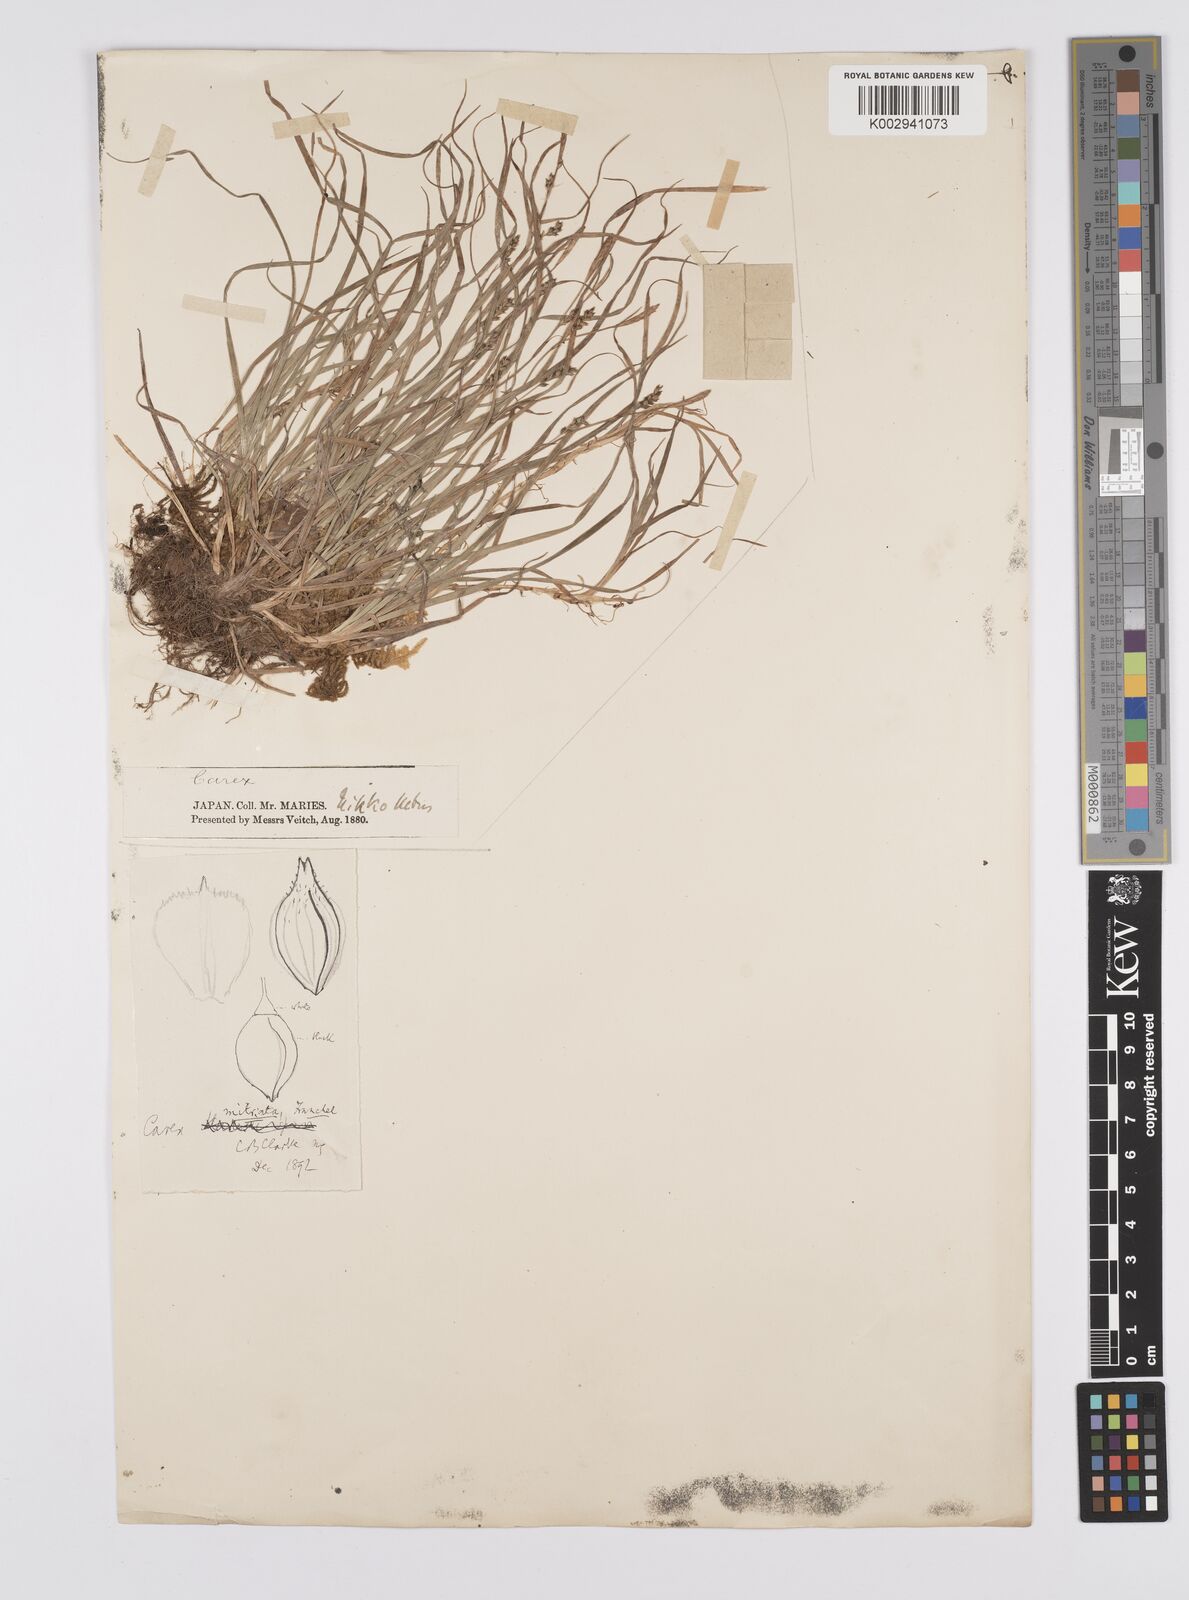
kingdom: Plantae
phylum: Tracheophyta
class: Liliopsida
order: Poales
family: Cyperaceae
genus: Carex
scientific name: Carex mitrata
